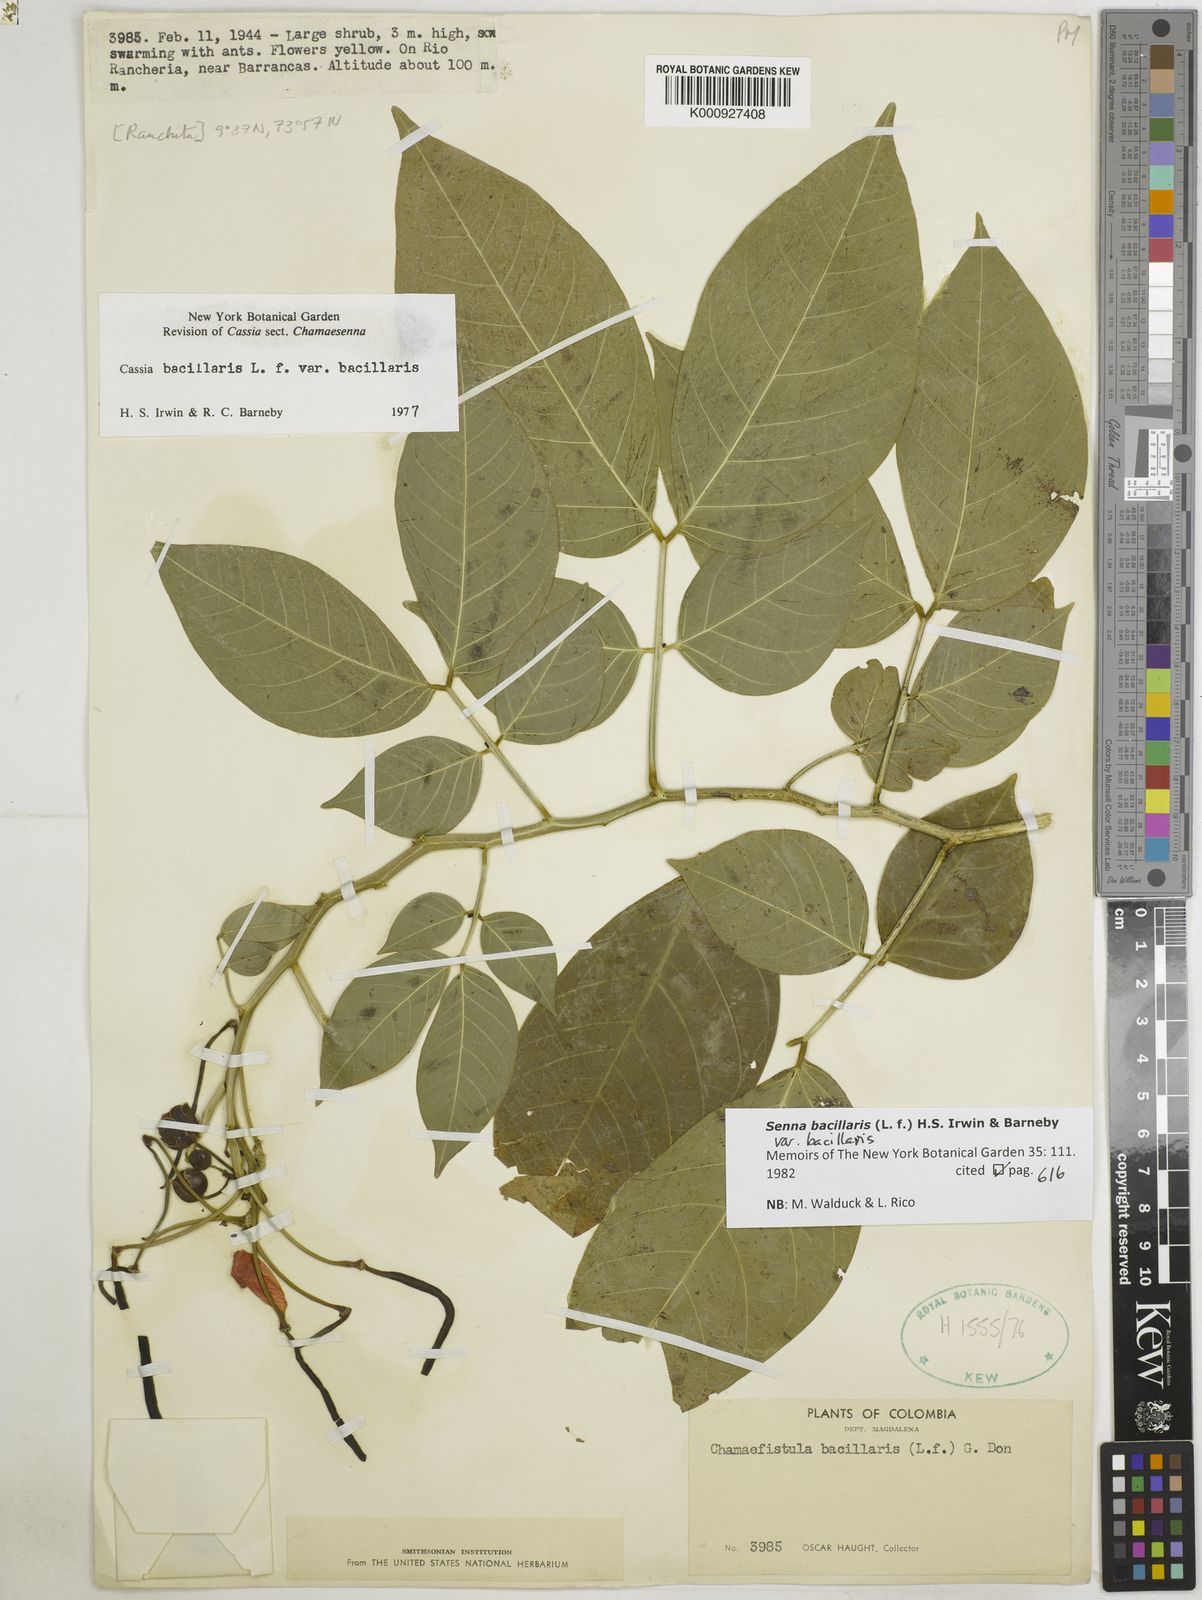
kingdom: Plantae
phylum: Tracheophyta
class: Magnoliopsida
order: Fabales
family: Fabaceae
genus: Senna
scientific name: Senna bacillaris
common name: West indian showertree
